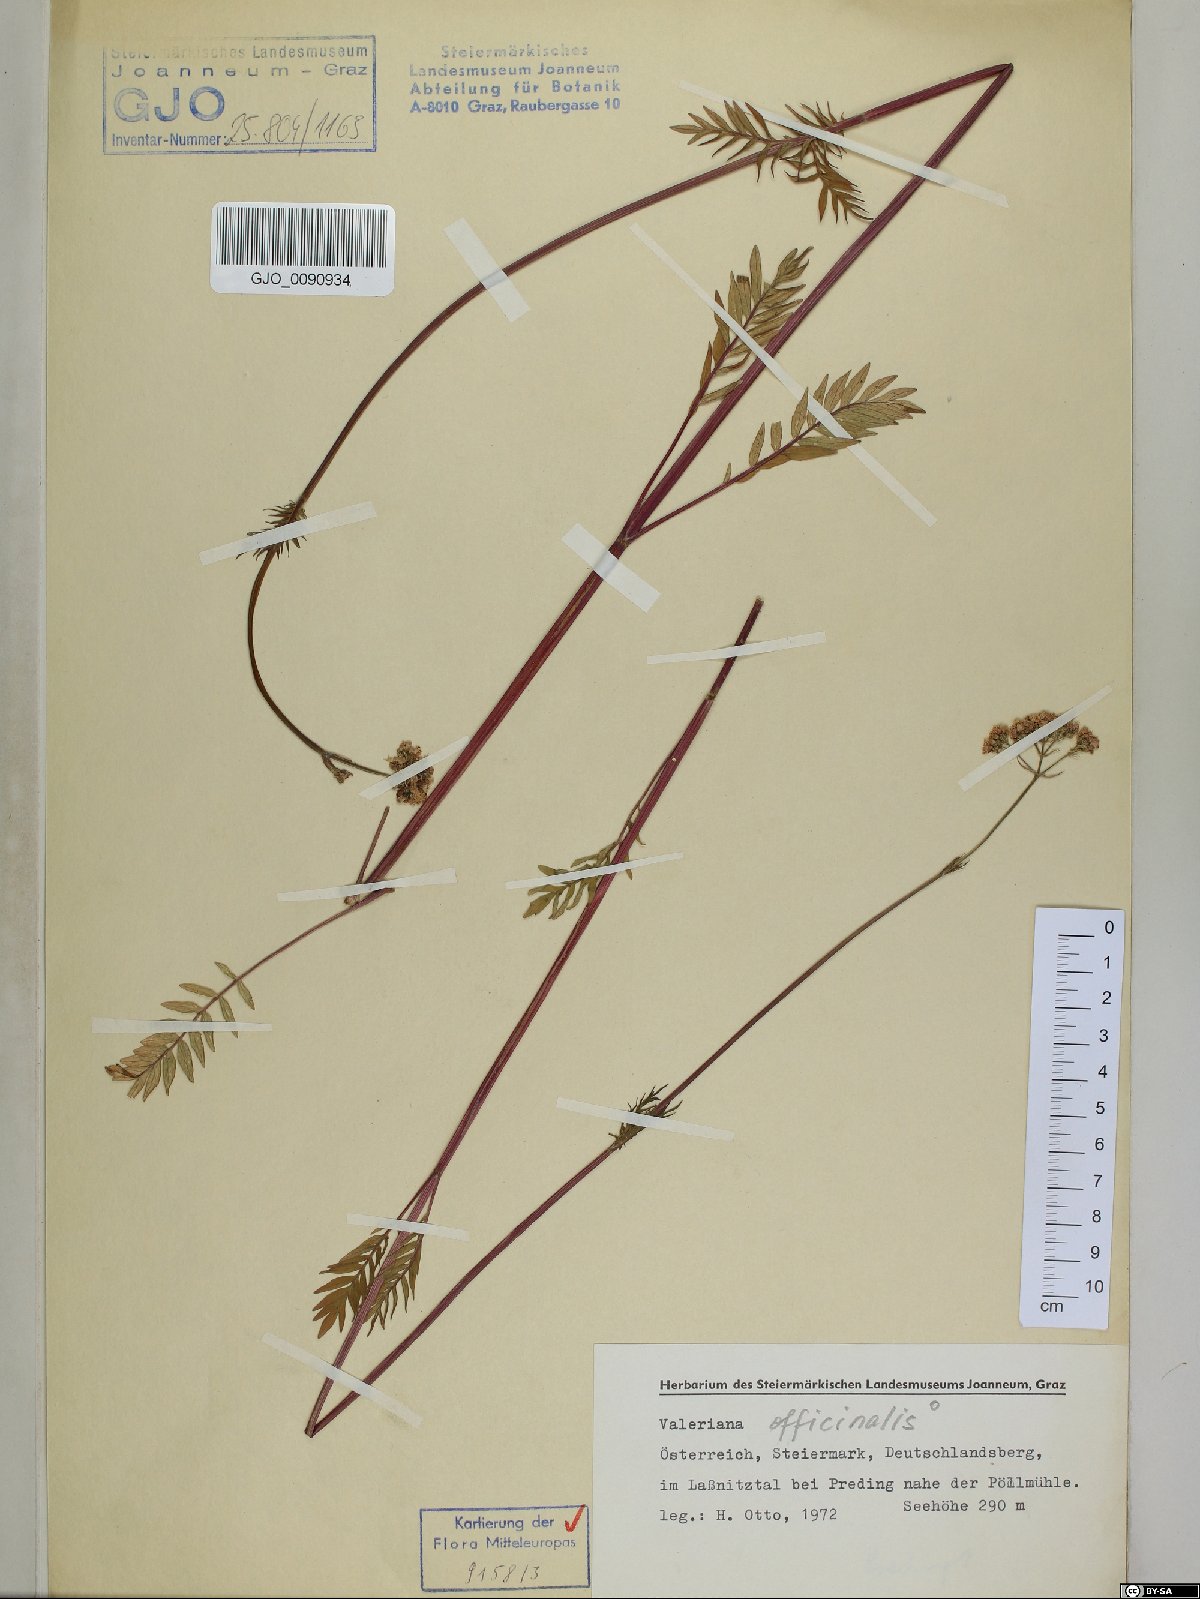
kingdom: Plantae
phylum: Tracheophyta
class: Magnoliopsida
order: Dipsacales
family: Caprifoliaceae
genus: Valeriana
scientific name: Valeriana officinalis
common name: Common valerian
